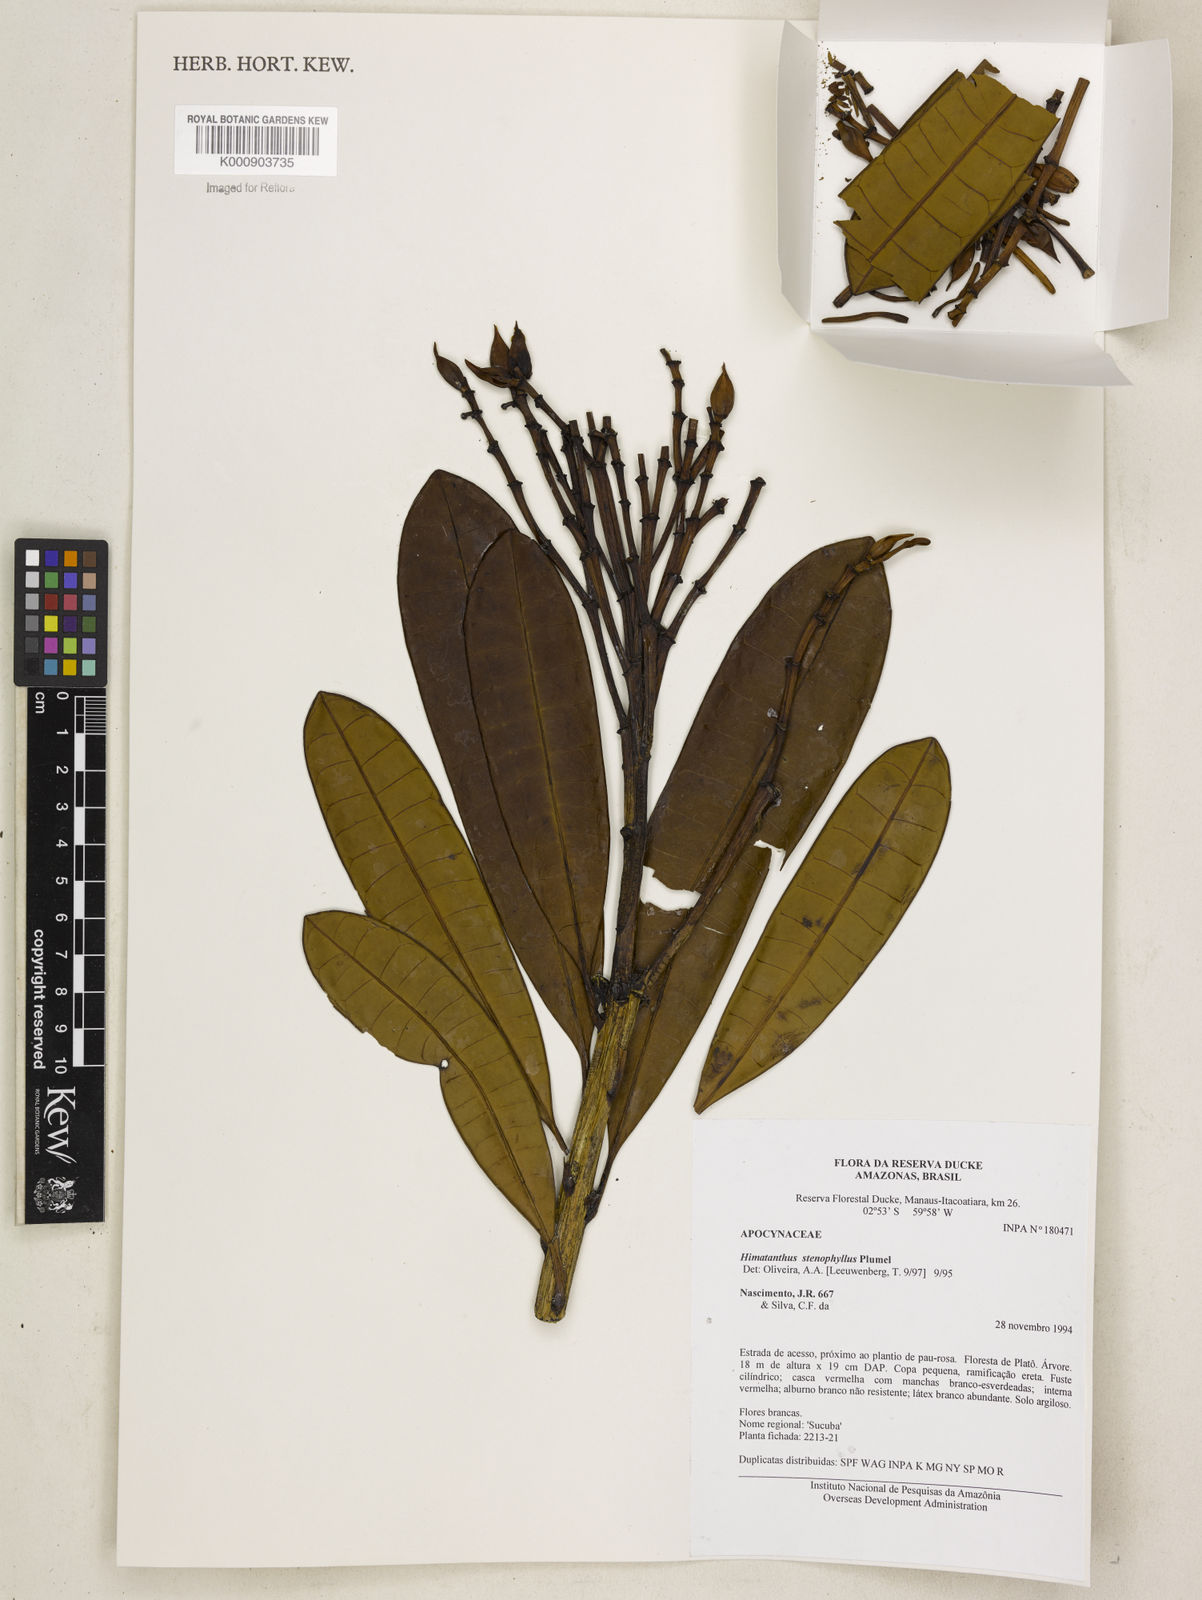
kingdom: Plantae
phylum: Tracheophyta
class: Magnoliopsida
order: Gentianales
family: Apocynaceae
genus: Himatanthus
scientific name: Himatanthus revolutus
